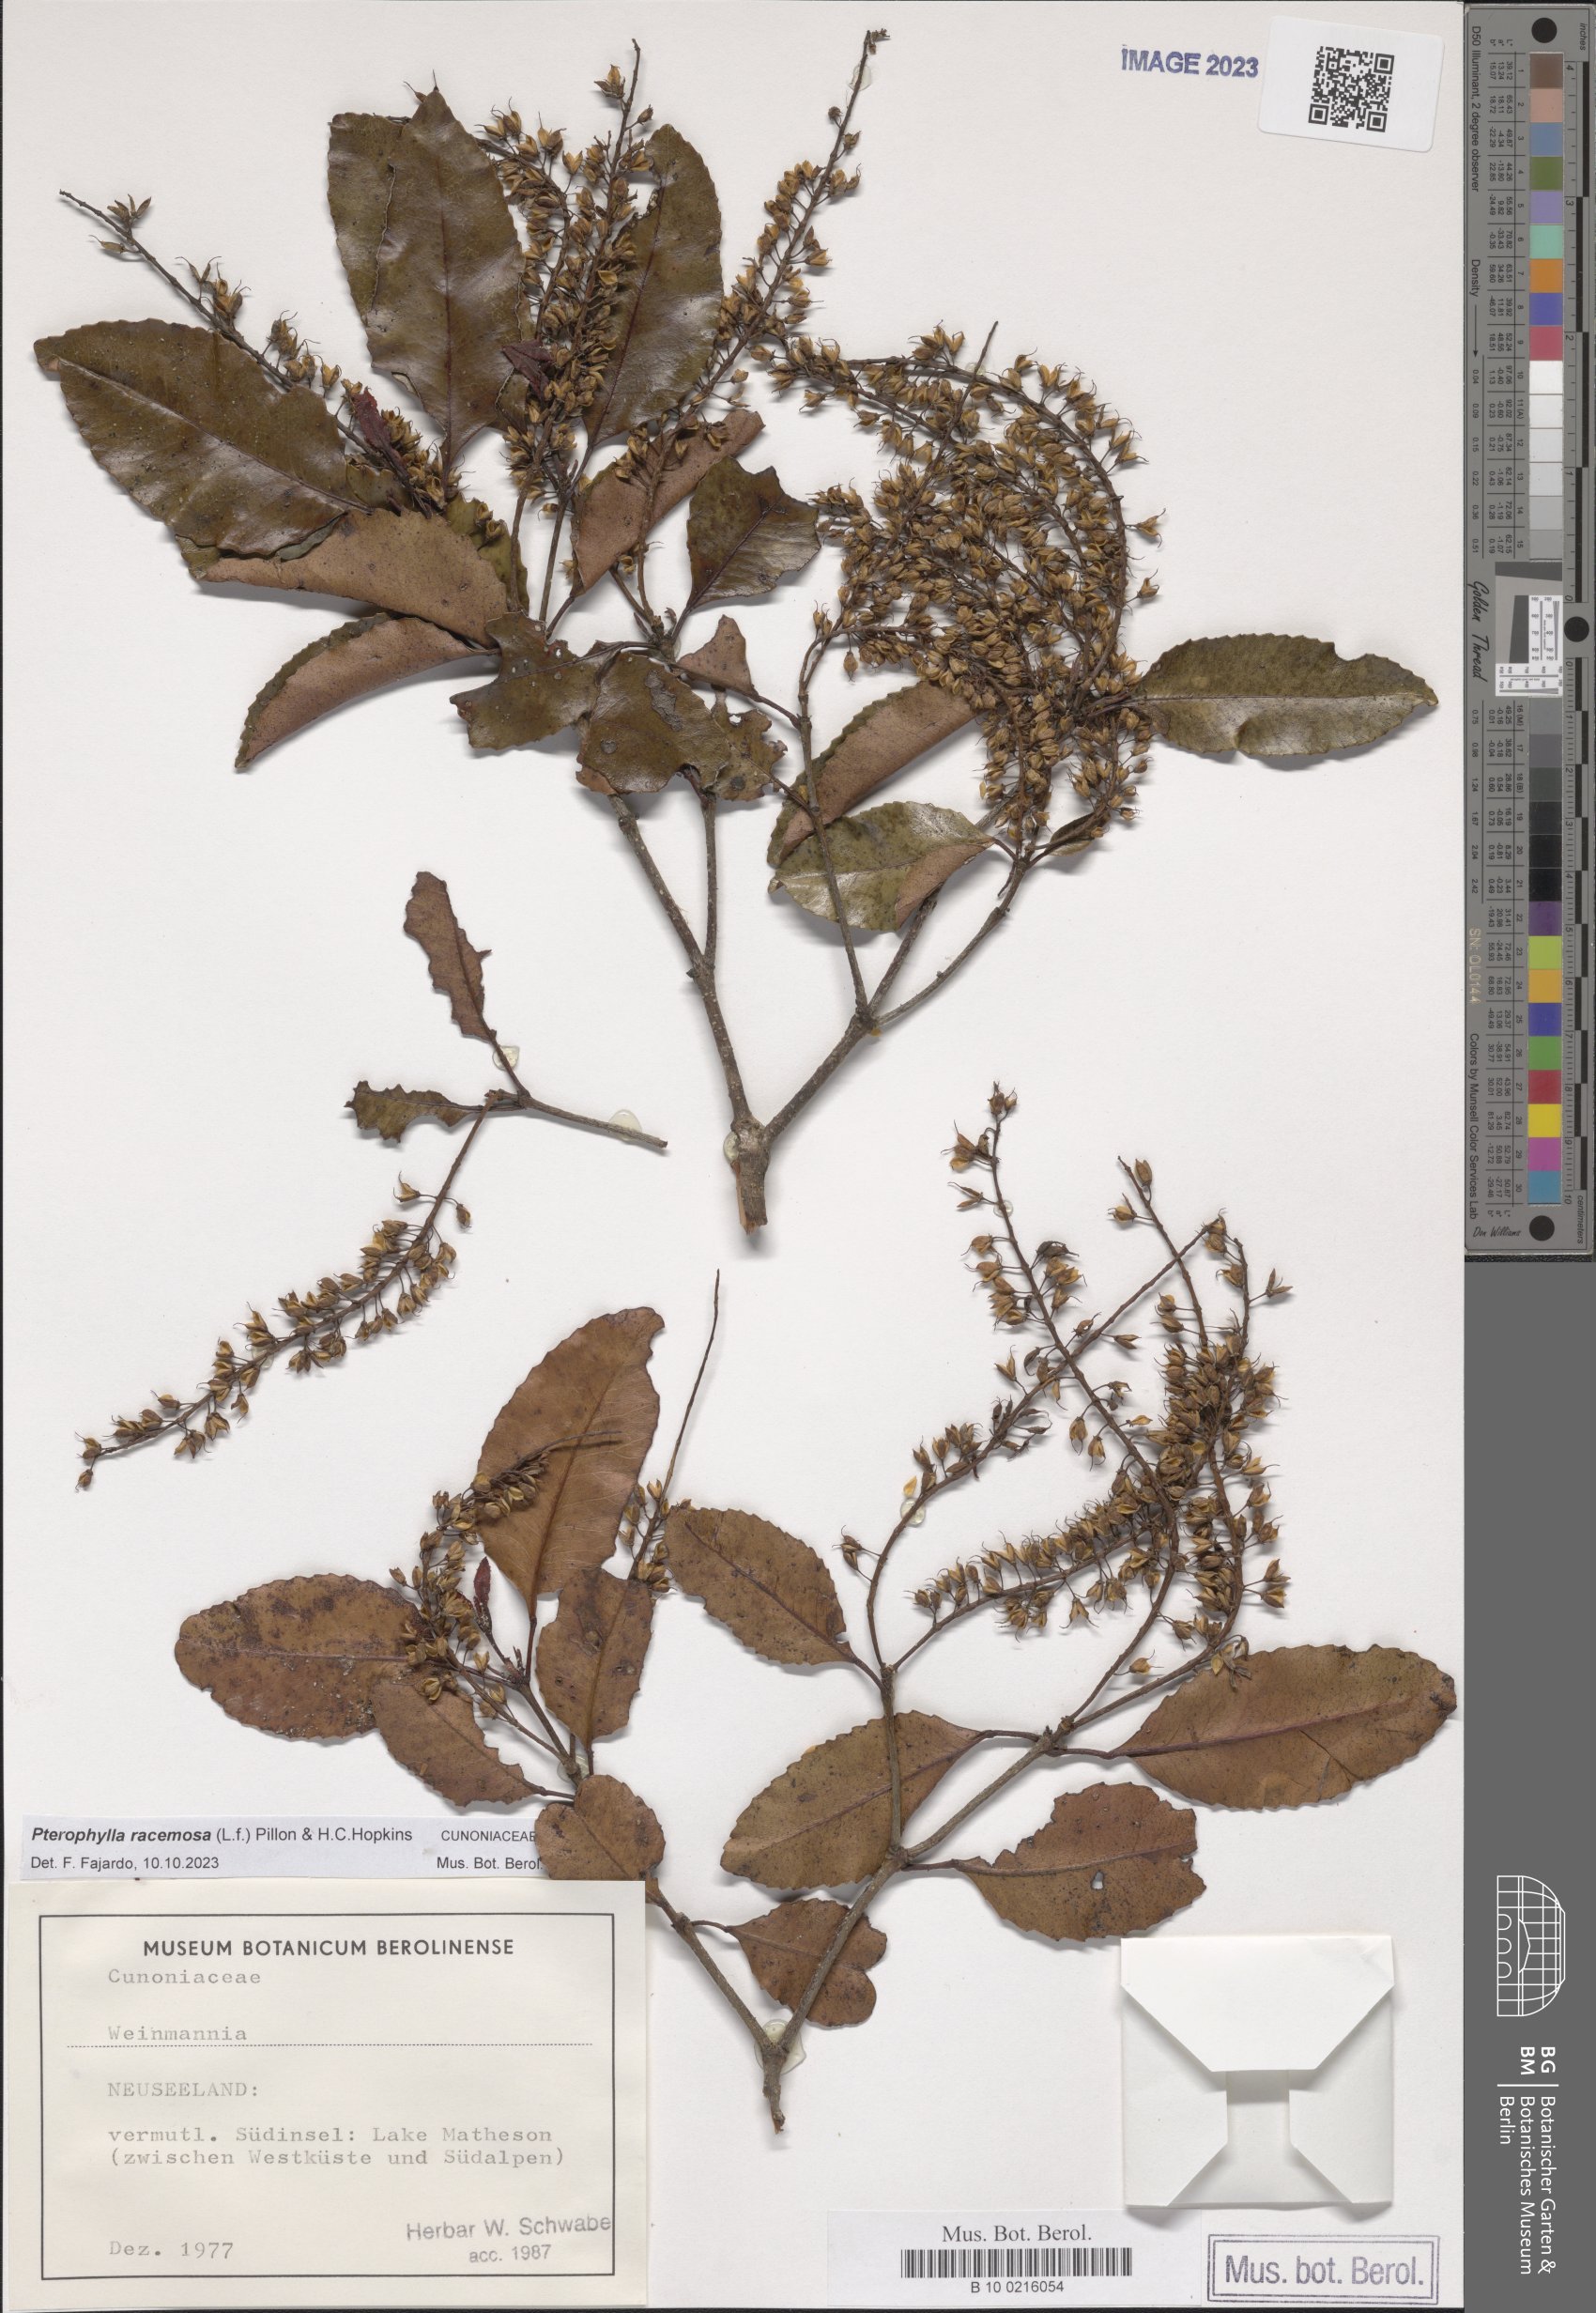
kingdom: Plantae
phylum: Tracheophyta
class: Magnoliopsida
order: Oxalidales
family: Cunoniaceae
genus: Pterophylla
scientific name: Pterophylla racemosa
